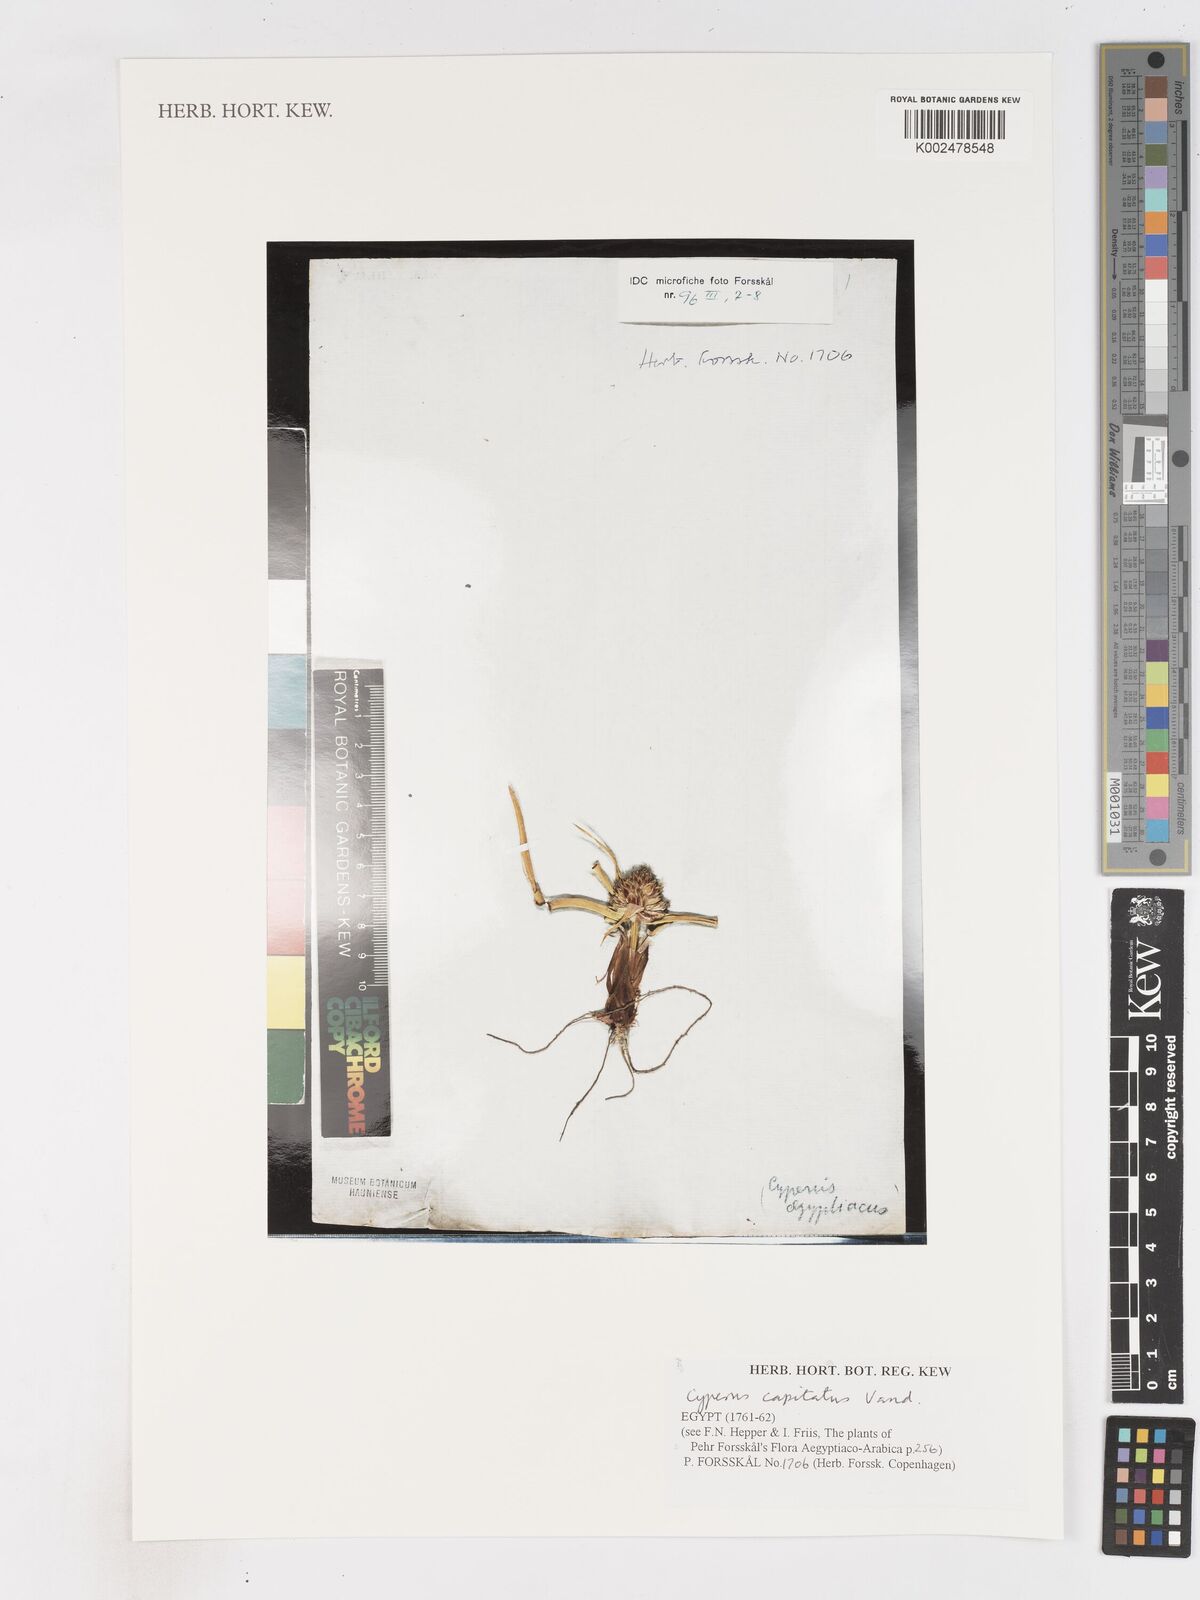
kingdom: Plantae
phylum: Tracheophyta
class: Liliopsida
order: Poales
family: Cyperaceae
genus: Cyperus
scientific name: Cyperus capitatus
